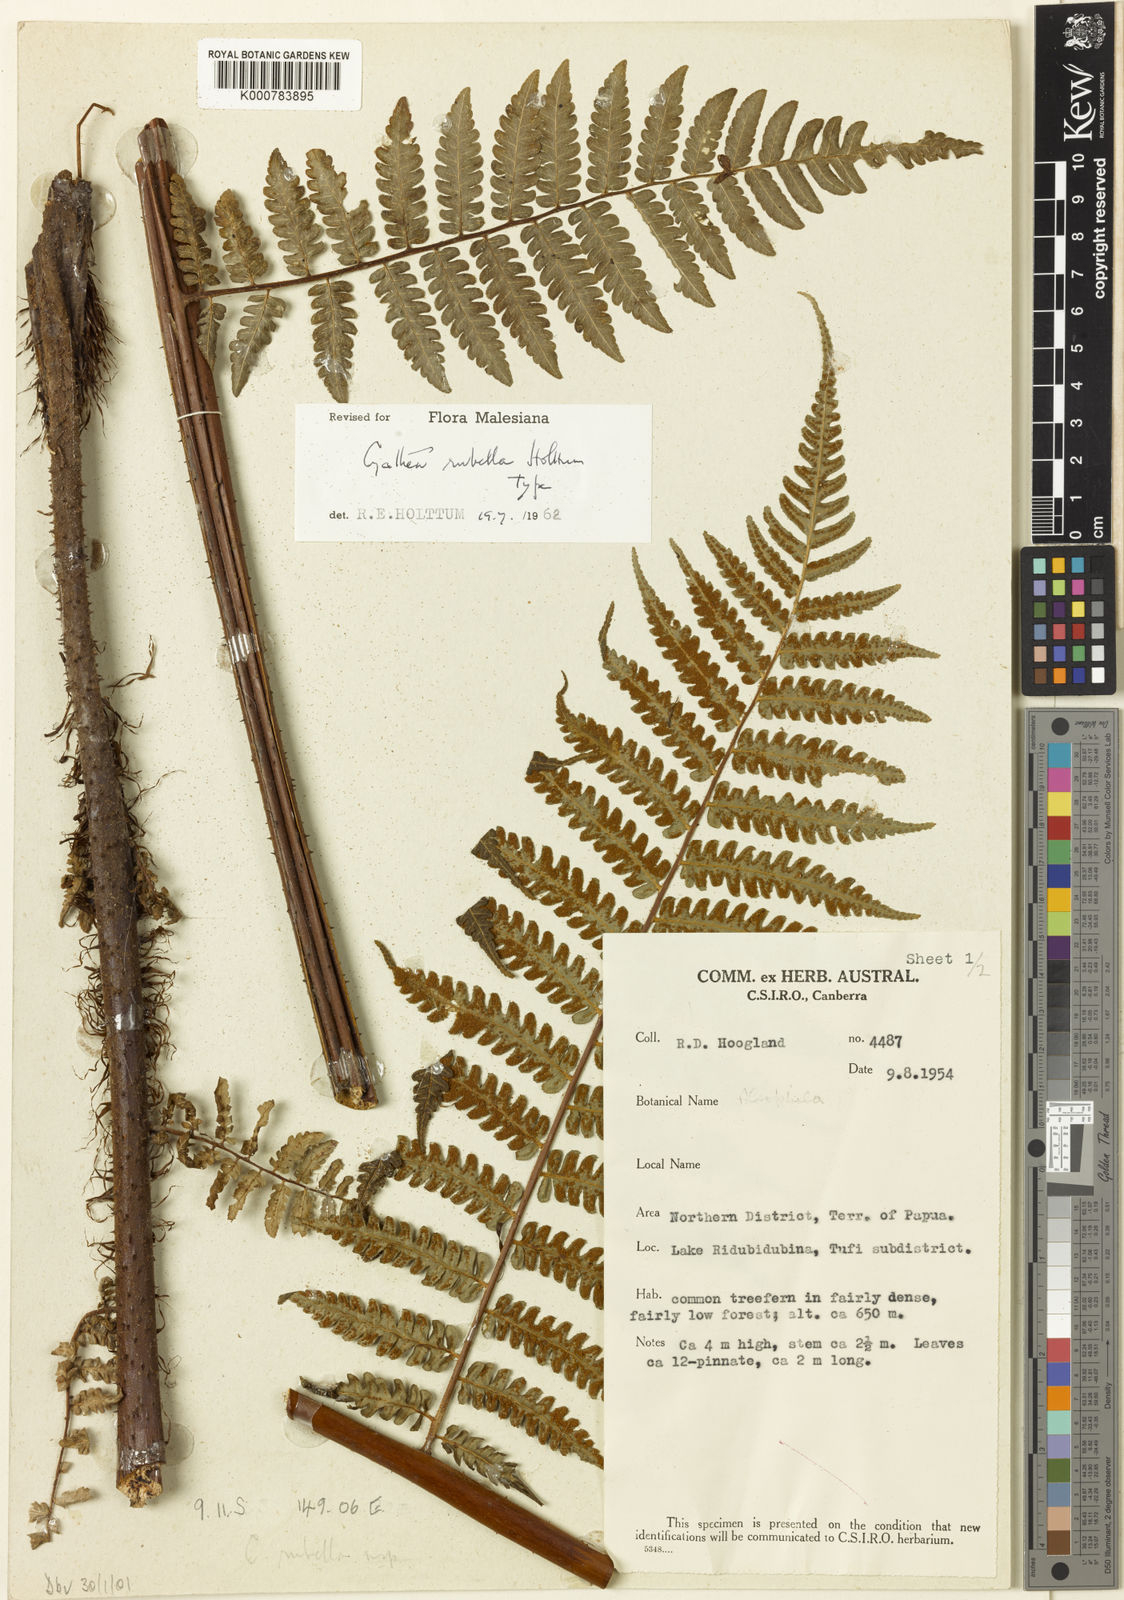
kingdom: Plantae
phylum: Tracheophyta
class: Polypodiopsida
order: Cyatheales
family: Cyatheaceae
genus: Gymnosphaera
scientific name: Gymnosphaera rubella
